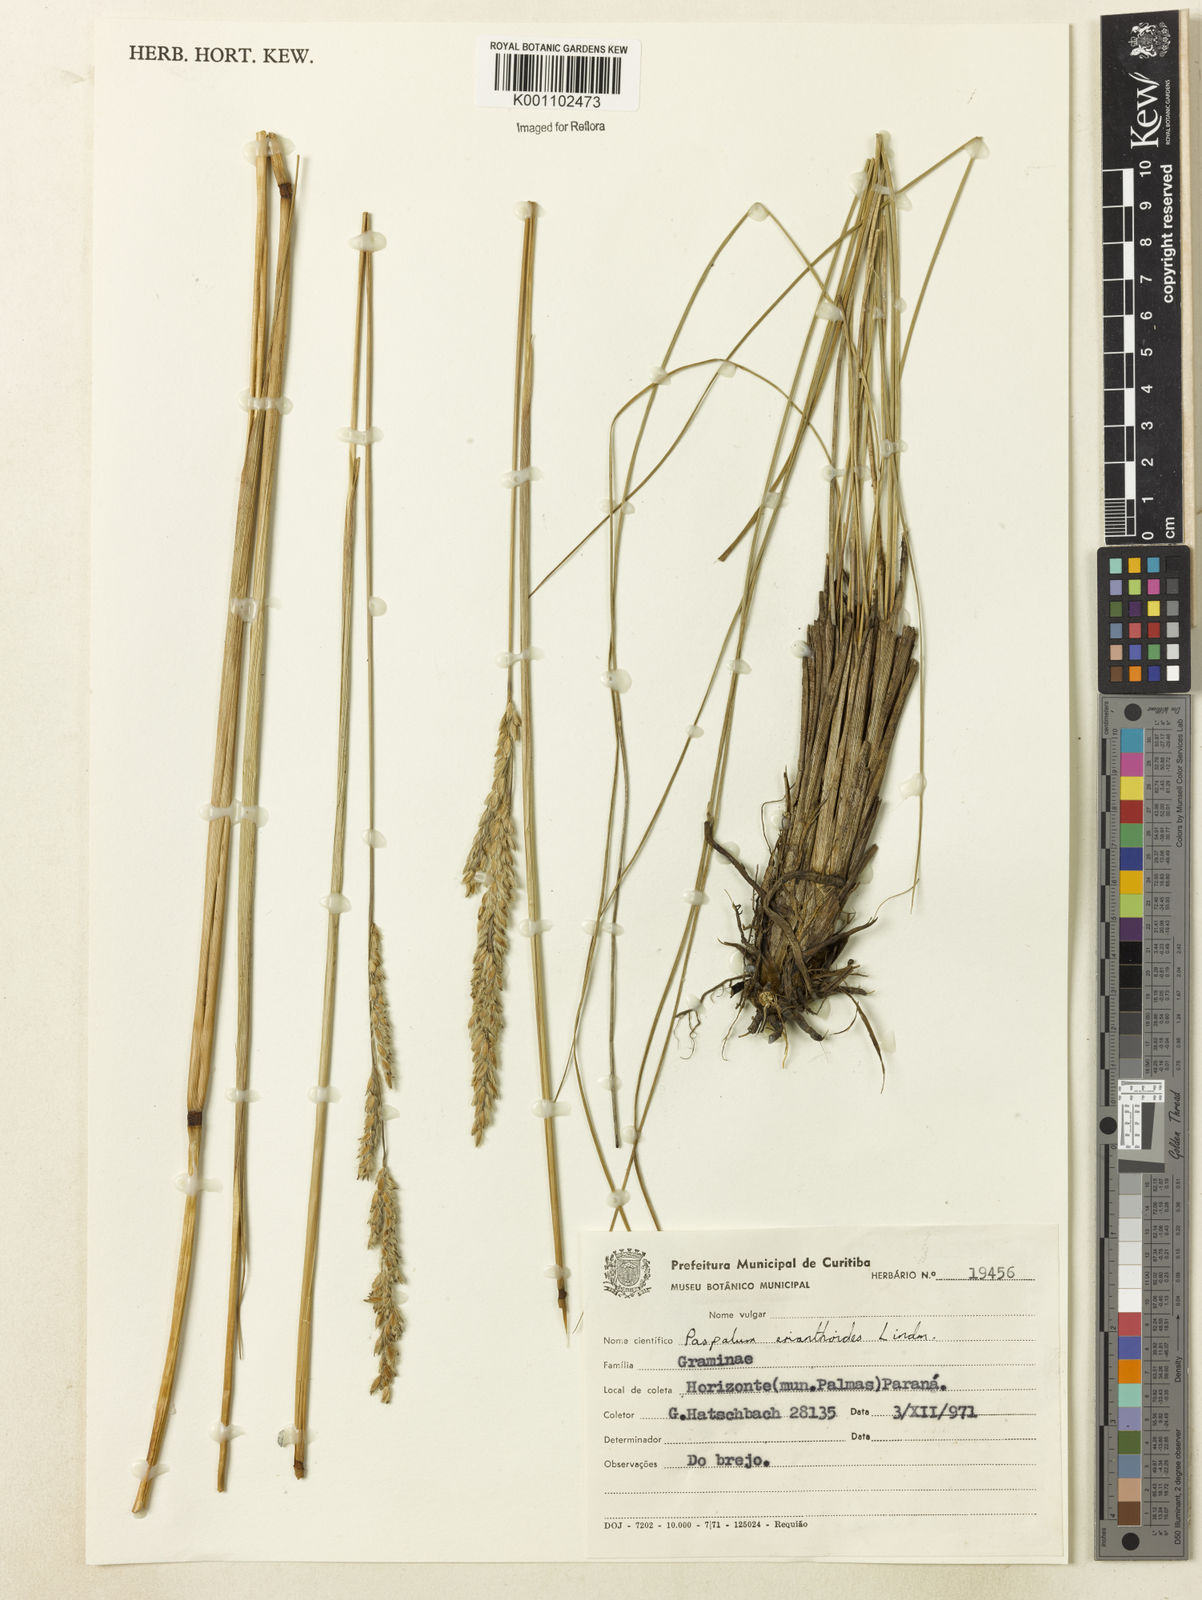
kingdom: Plantae
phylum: Tracheophyta
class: Liliopsida
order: Poales
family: Poaceae
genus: Paspalum
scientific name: Paspalum erianthoides
